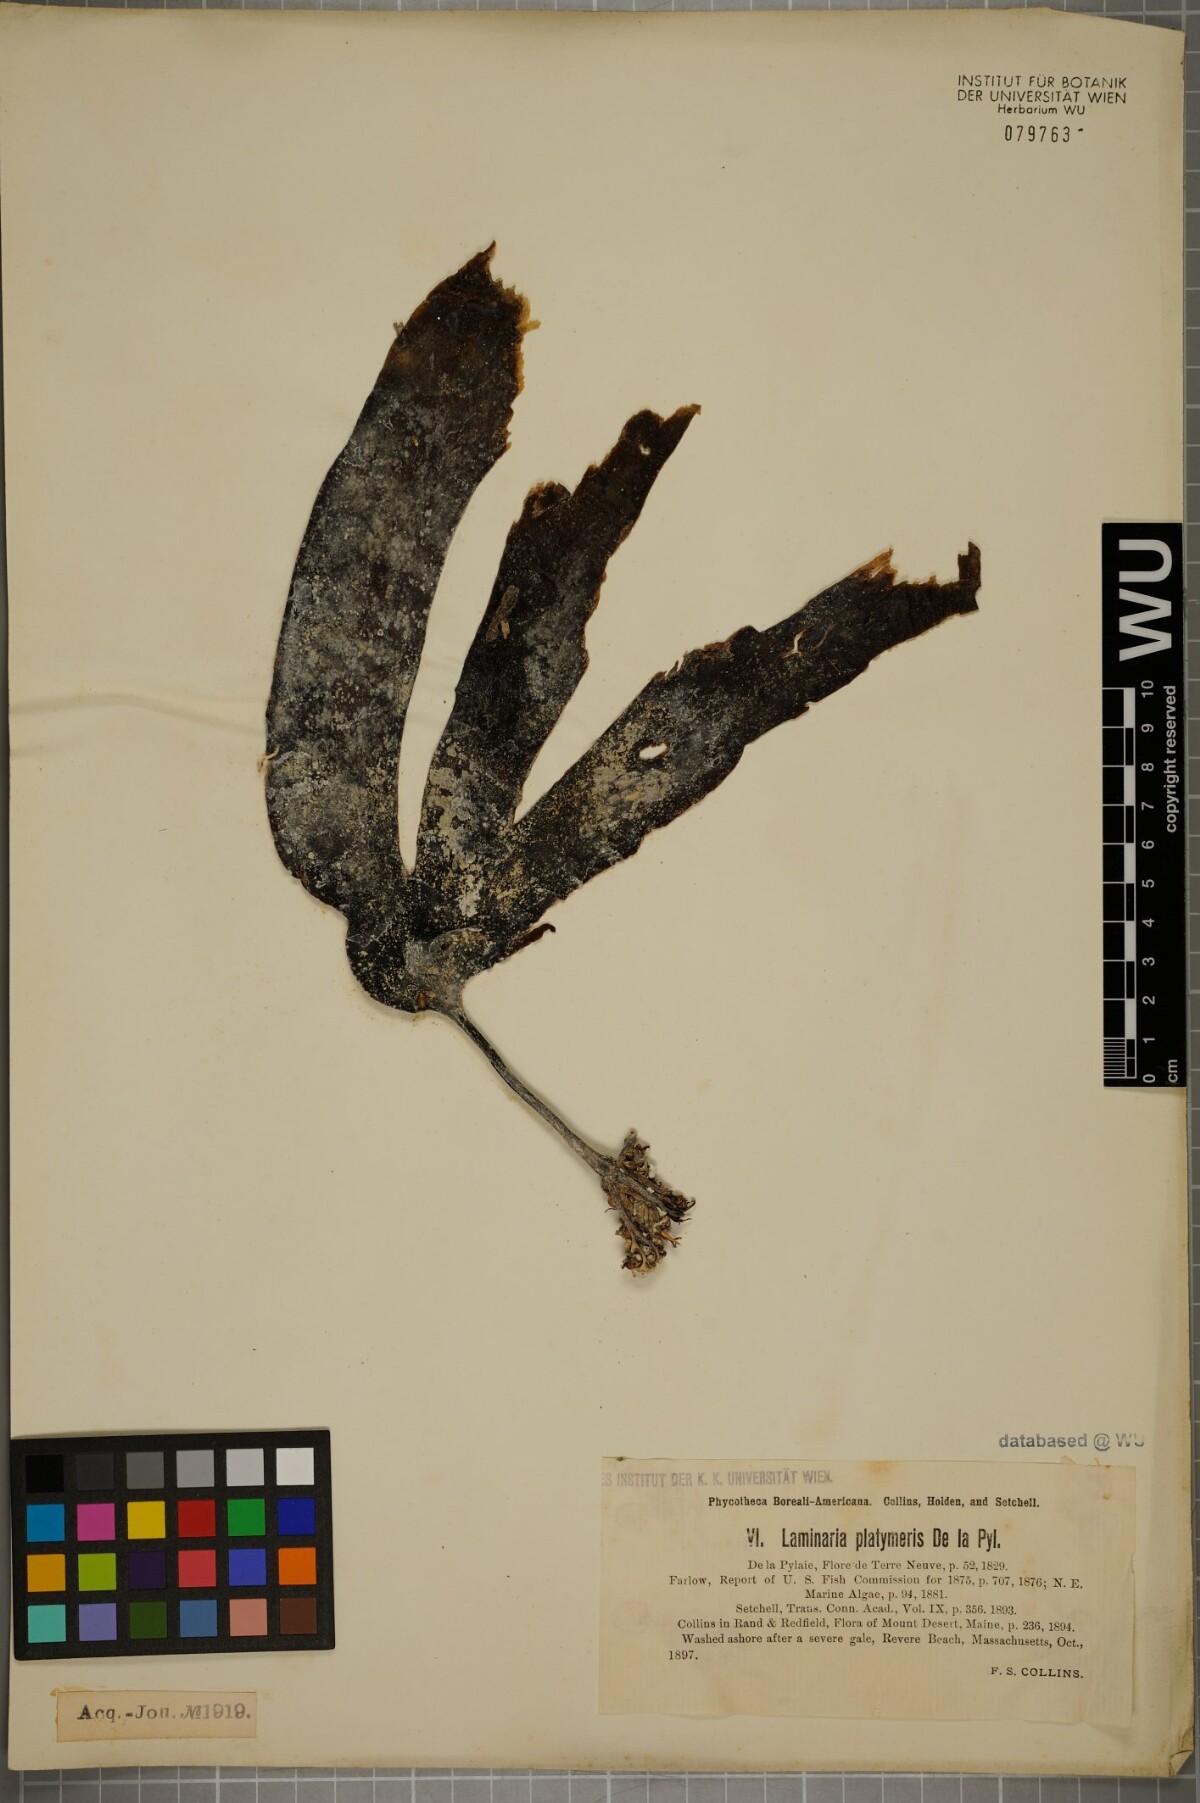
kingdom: Chromista
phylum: Ochrophyta
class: Phaeophyceae
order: Laminariales
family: Laminariaceae
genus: Laminaria
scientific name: Laminaria digitata
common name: Oarweed
